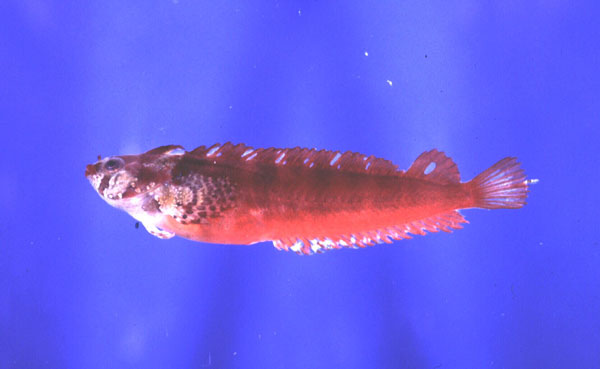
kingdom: Animalia
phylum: Chordata
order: Perciformes
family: Clinidae
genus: Blennioclinus
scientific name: Blennioclinus brachycephalus
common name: Lace klipfish
